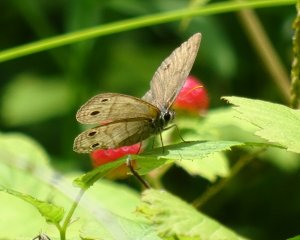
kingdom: Animalia
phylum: Arthropoda
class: Insecta
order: Lepidoptera
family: Nymphalidae
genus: Euptychia
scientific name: Euptychia cymela
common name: Little Wood Satyr
